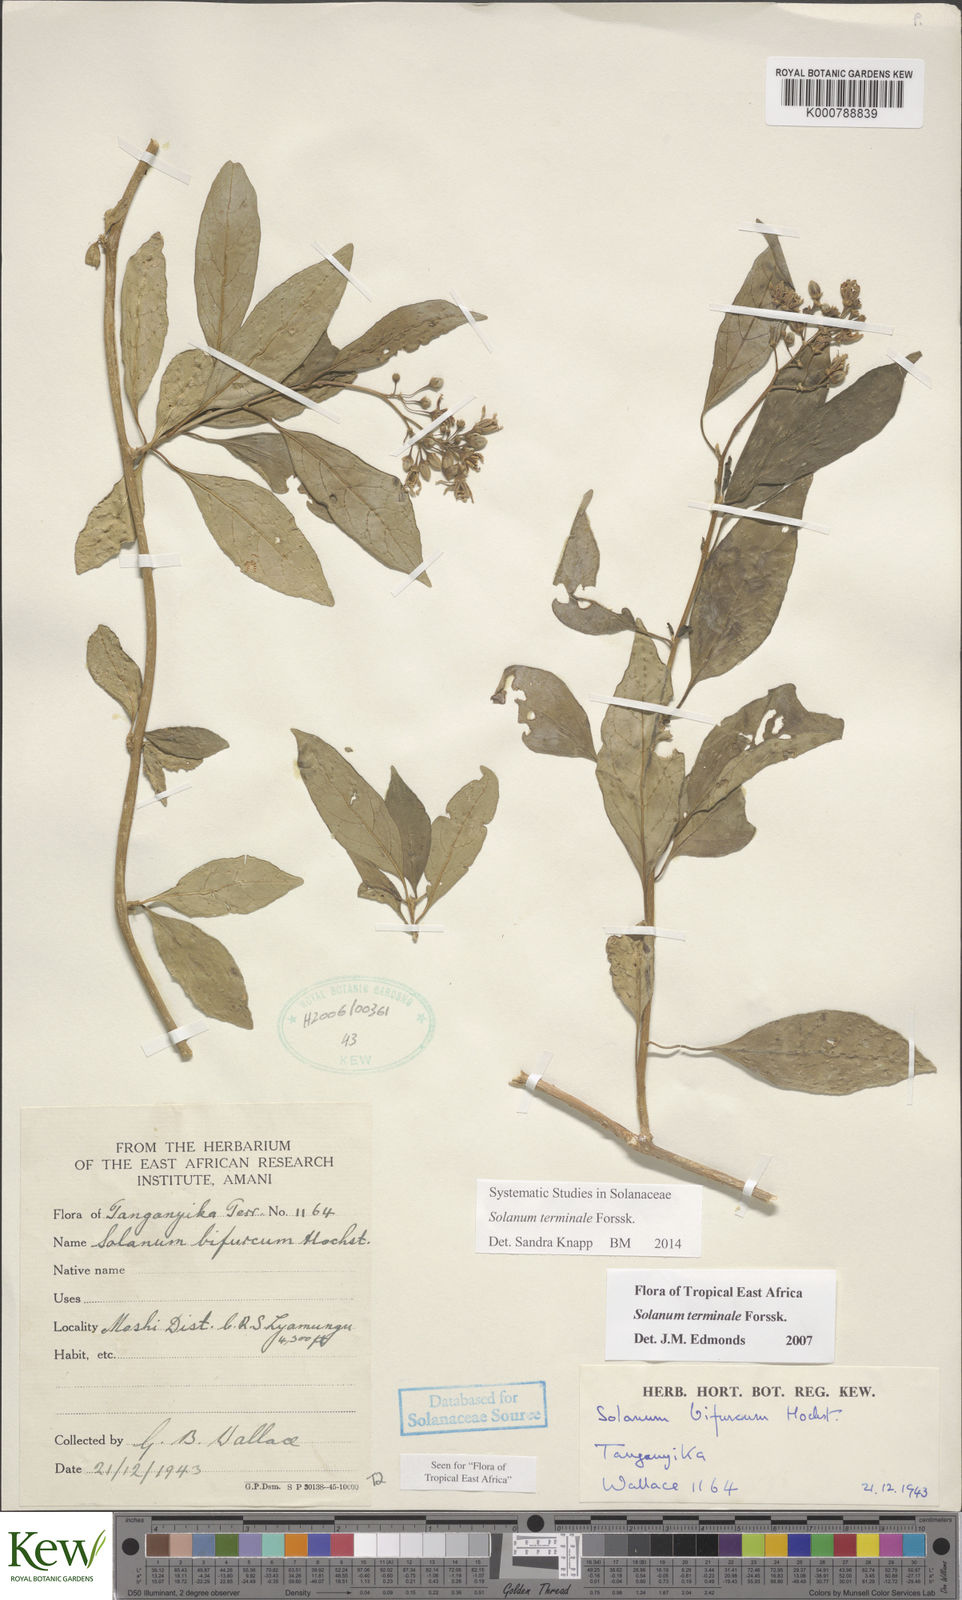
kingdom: Plantae
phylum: Tracheophyta
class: Magnoliopsida
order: Solanales
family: Solanaceae
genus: Solanum
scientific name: Solanum terminale
